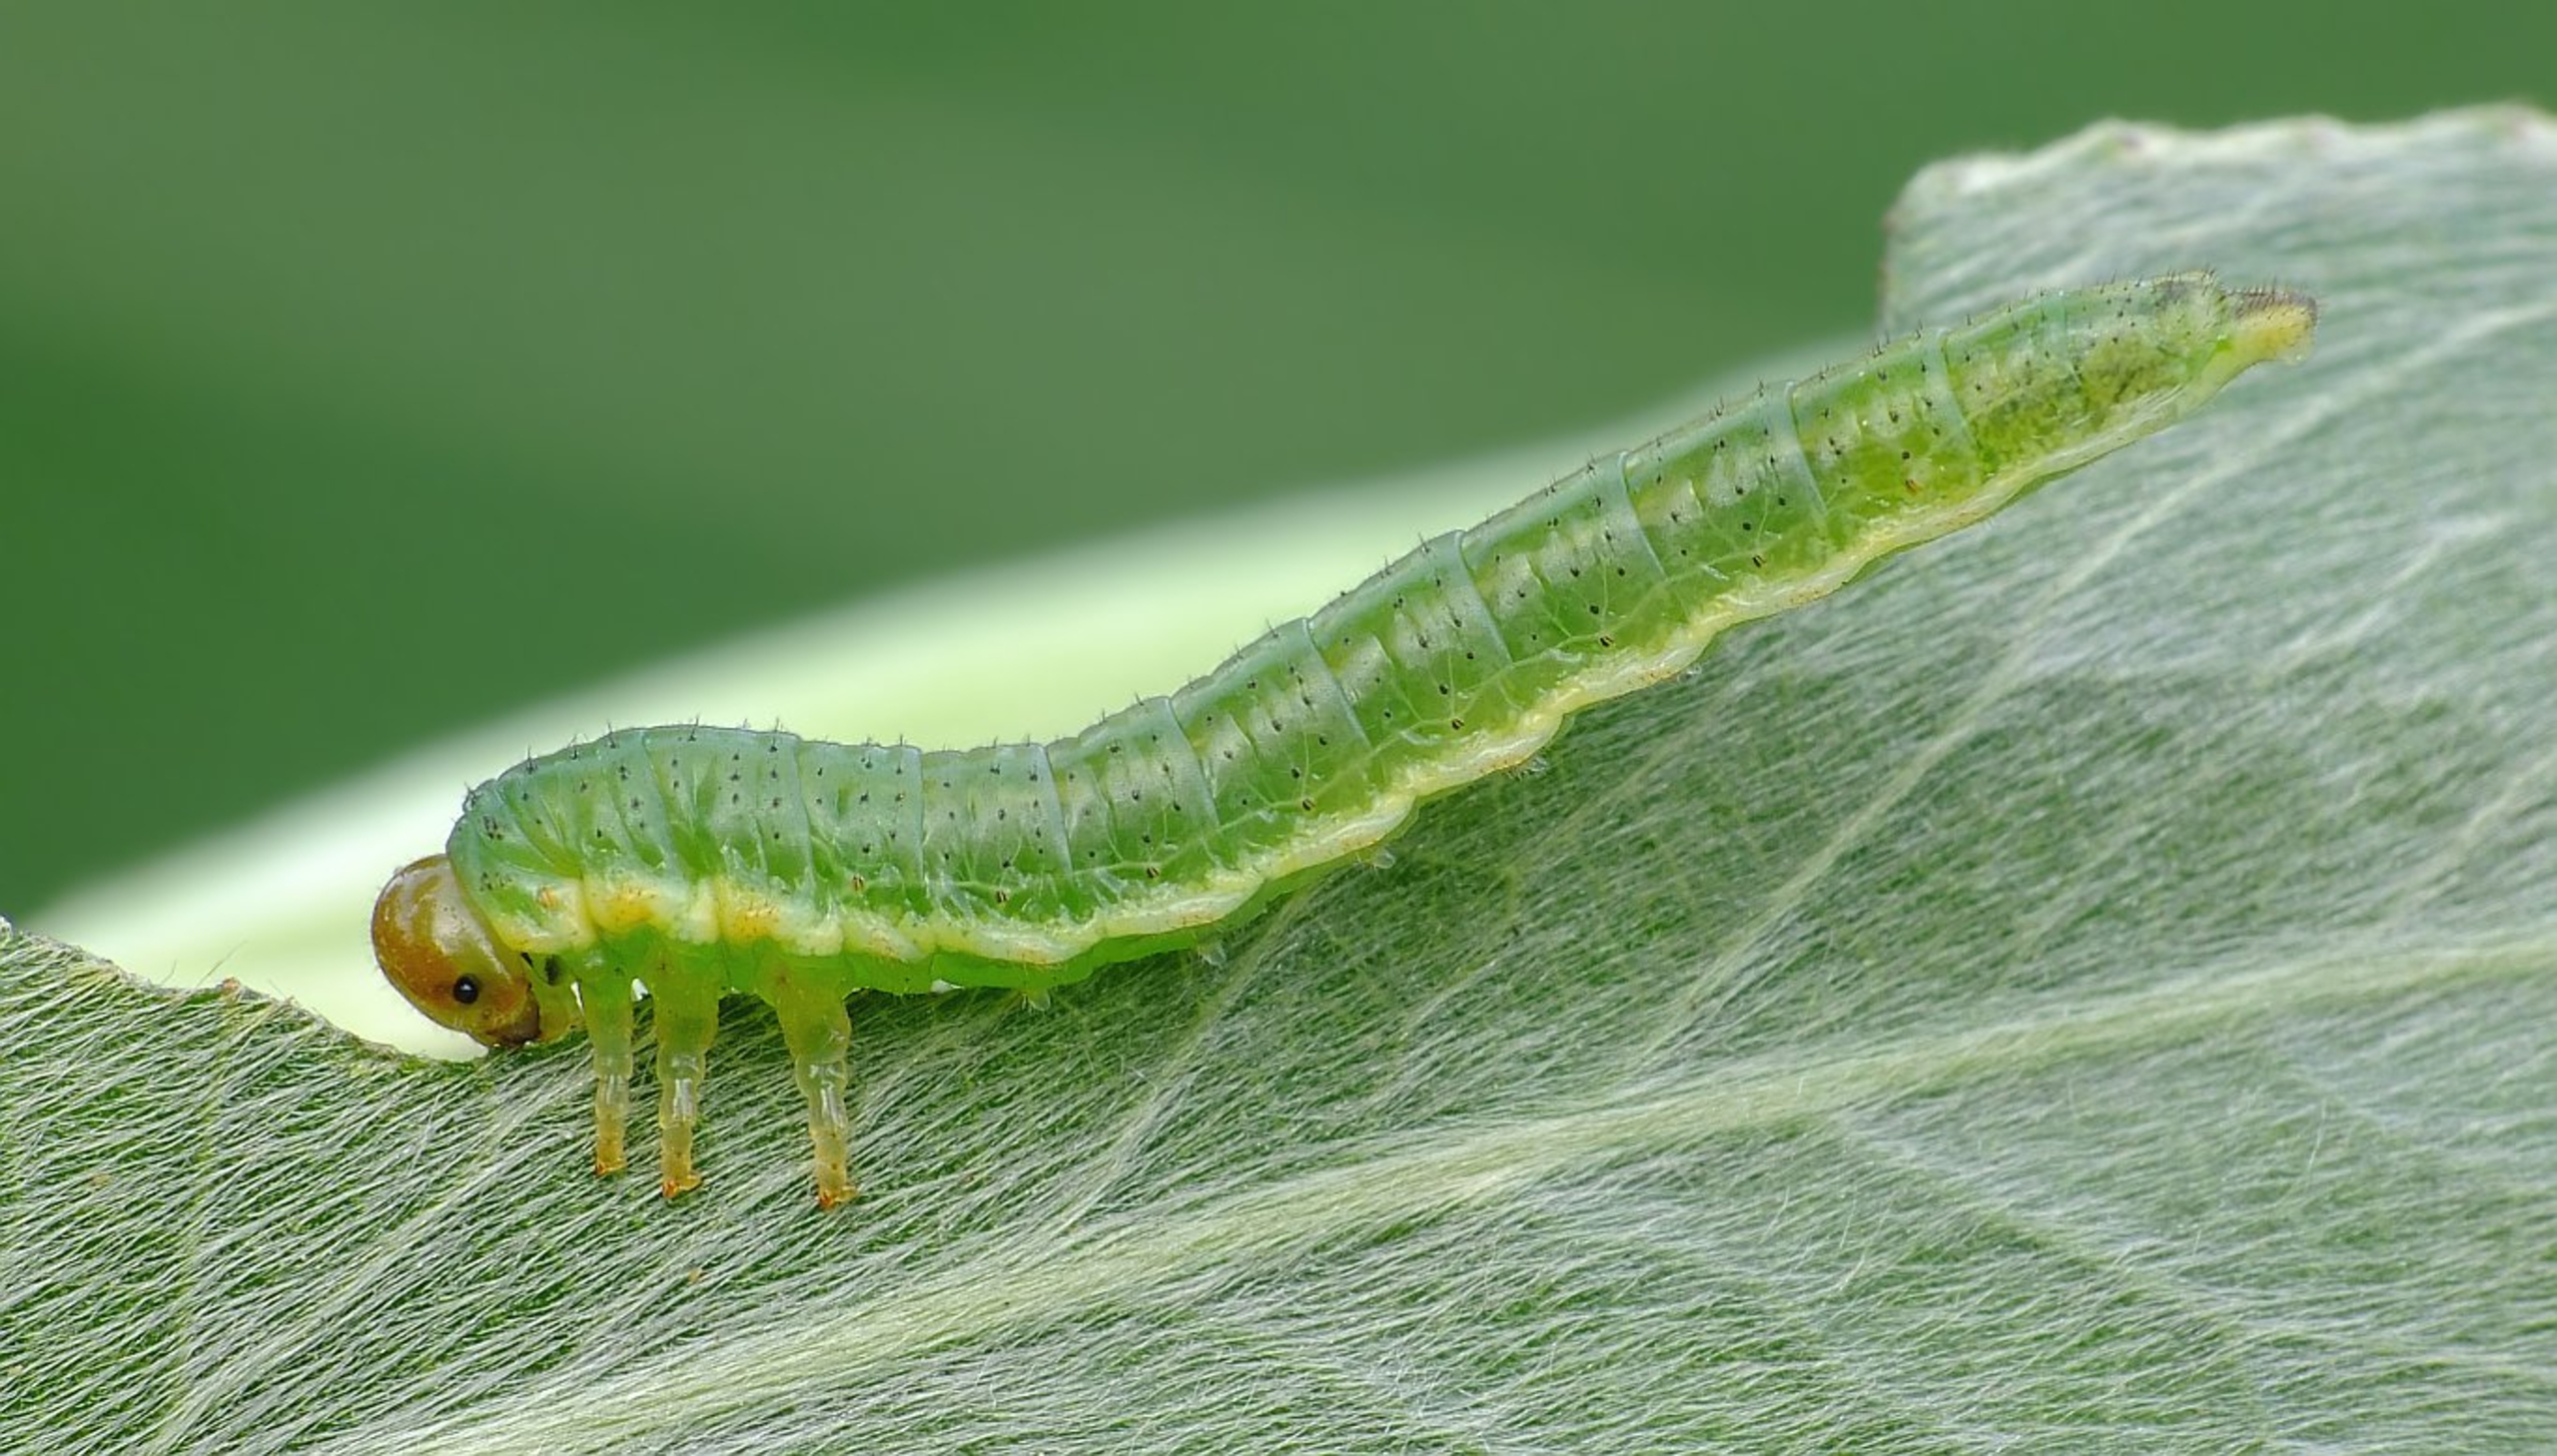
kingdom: Animalia
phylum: Arthropoda
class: Insecta
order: Hymenoptera
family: Argidae
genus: Arge
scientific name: Arge enodis
